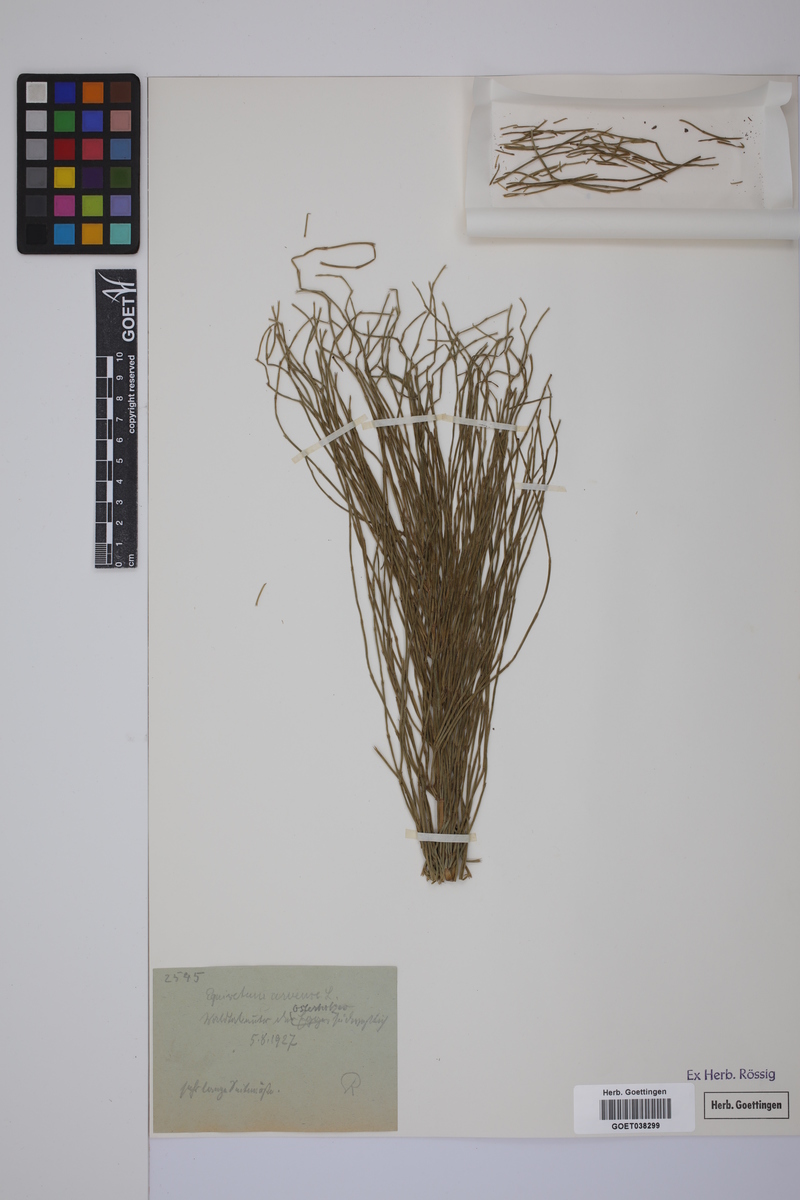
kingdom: Plantae
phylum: Tracheophyta
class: Polypodiopsida
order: Equisetales
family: Equisetaceae
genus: Equisetum
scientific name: Equisetum arvense
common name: Field horsetail
